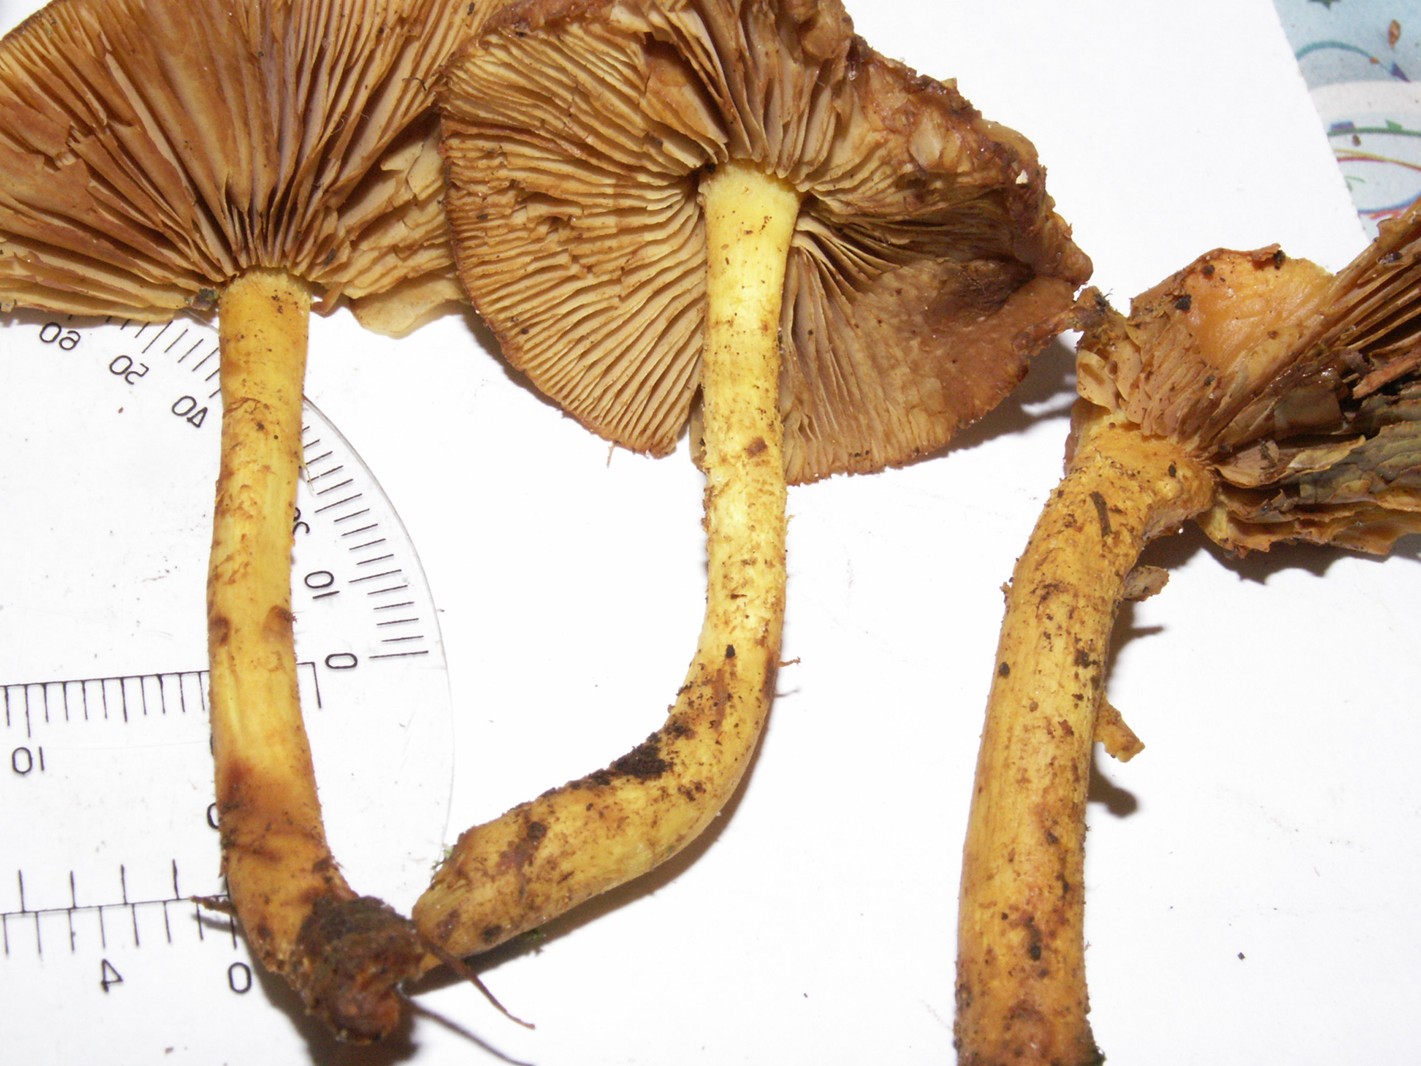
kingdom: Fungi
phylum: Basidiomycota
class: Agaricomycetes
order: Agaricales
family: Strophariaceae
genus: Pholiota
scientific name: Pholiota flammans
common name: flamme-skælhat
